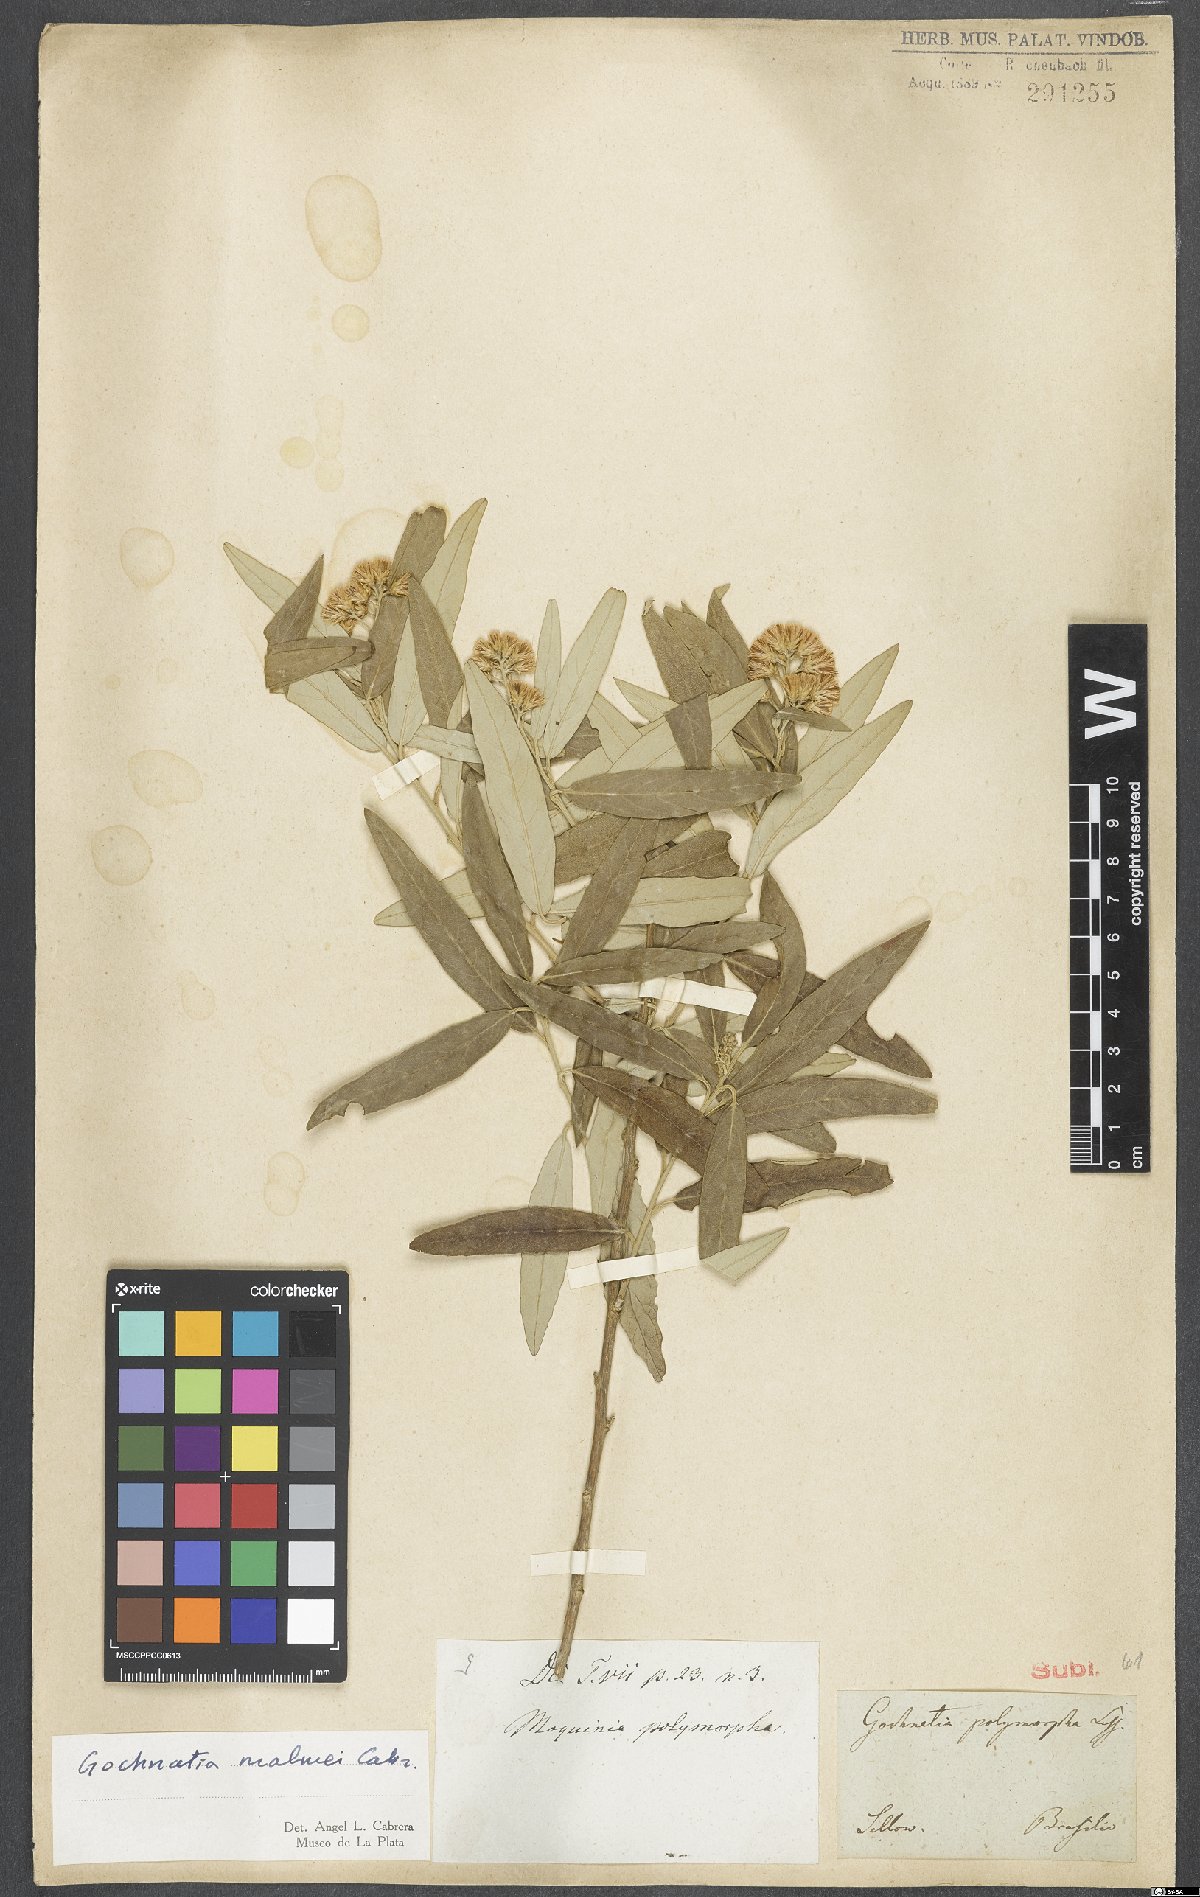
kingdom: Plantae
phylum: Tracheophyta
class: Magnoliopsida
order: Asterales
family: Asteraceae
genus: Moquiniastrum
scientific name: Moquiniastrum polymorphum
